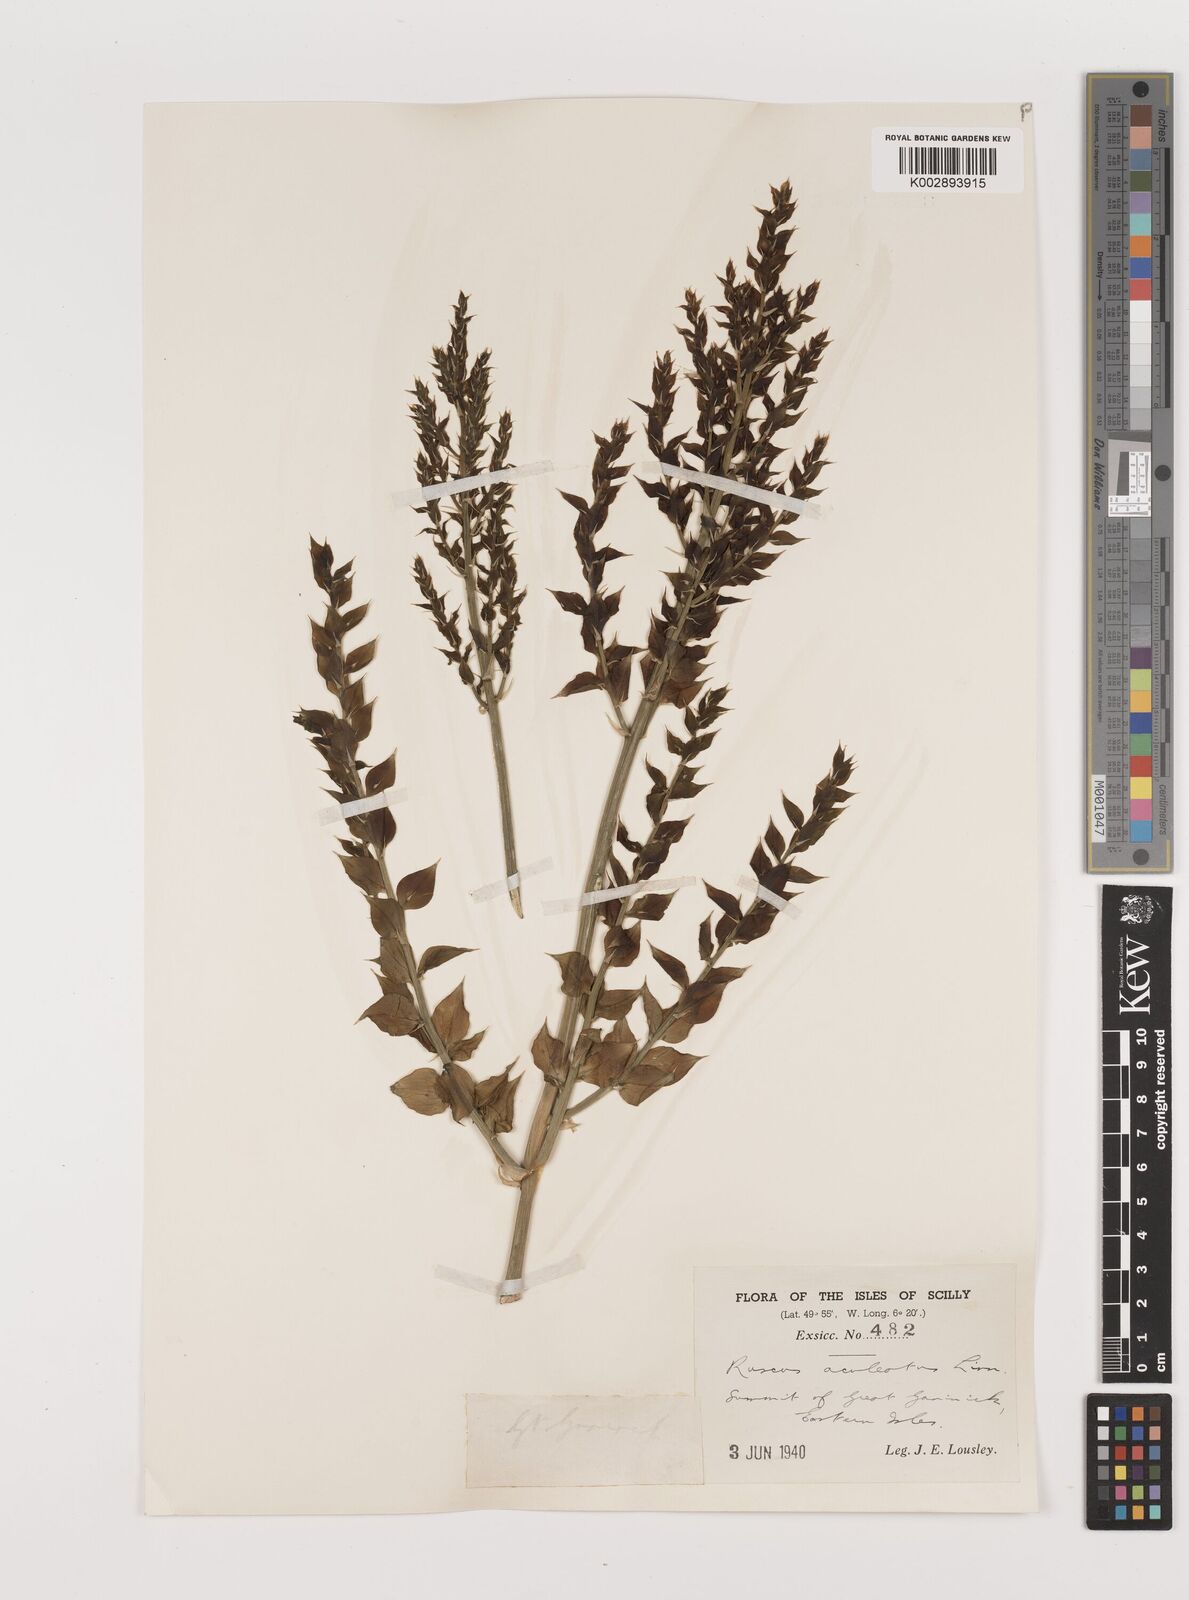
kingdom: Plantae
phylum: Tracheophyta
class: Liliopsida
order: Asparagales
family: Asparagaceae
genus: Ruscus
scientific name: Ruscus aculeatus
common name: Butcher's-broom
